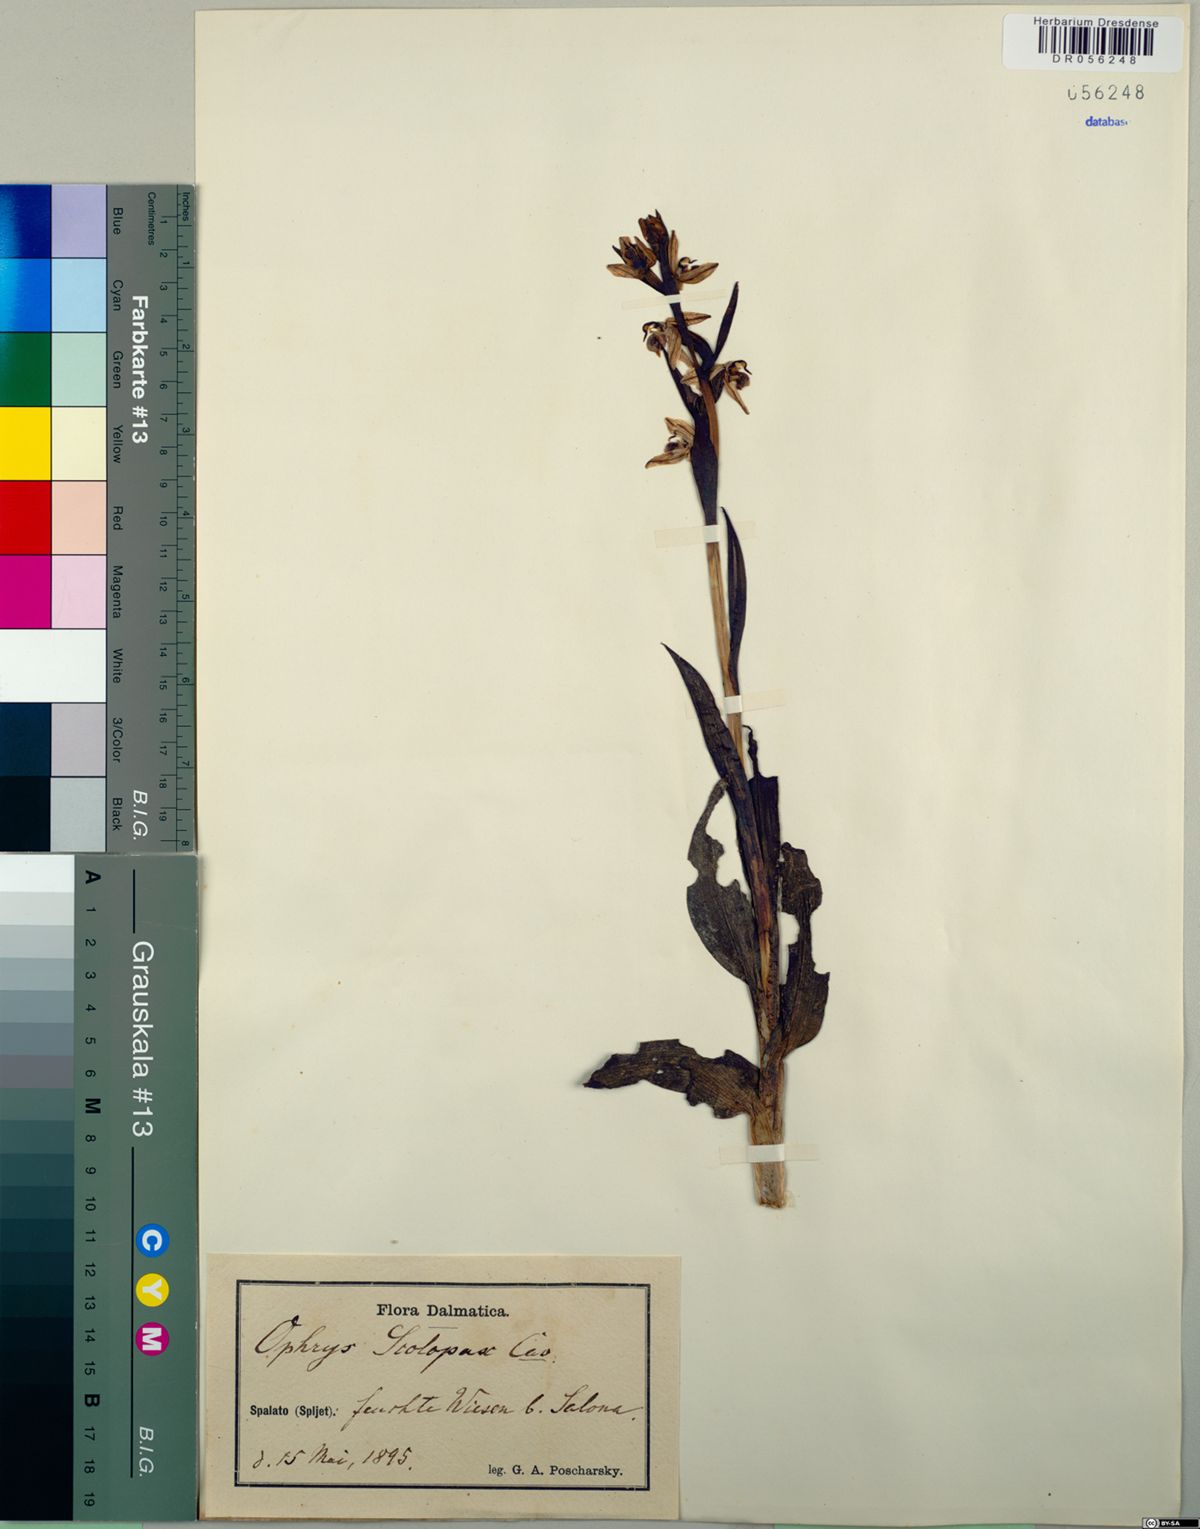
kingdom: Plantae
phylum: Tracheophyta
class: Liliopsida
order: Asparagales
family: Orchidaceae
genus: Ophrys
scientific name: Ophrys scolopax
